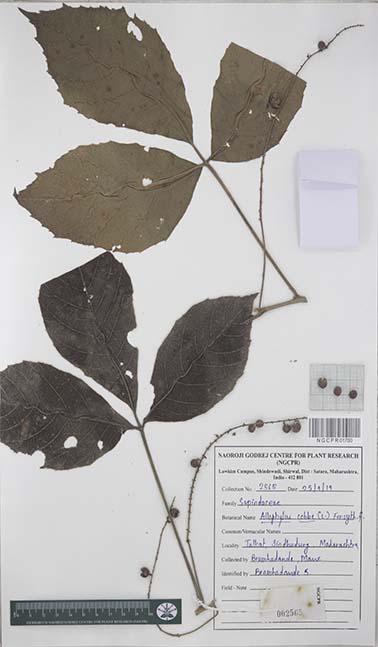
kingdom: Plantae
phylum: Tracheophyta
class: Magnoliopsida
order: Sapindales
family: Sapindaceae
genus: Allophylus
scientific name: Allophylus cobbe
